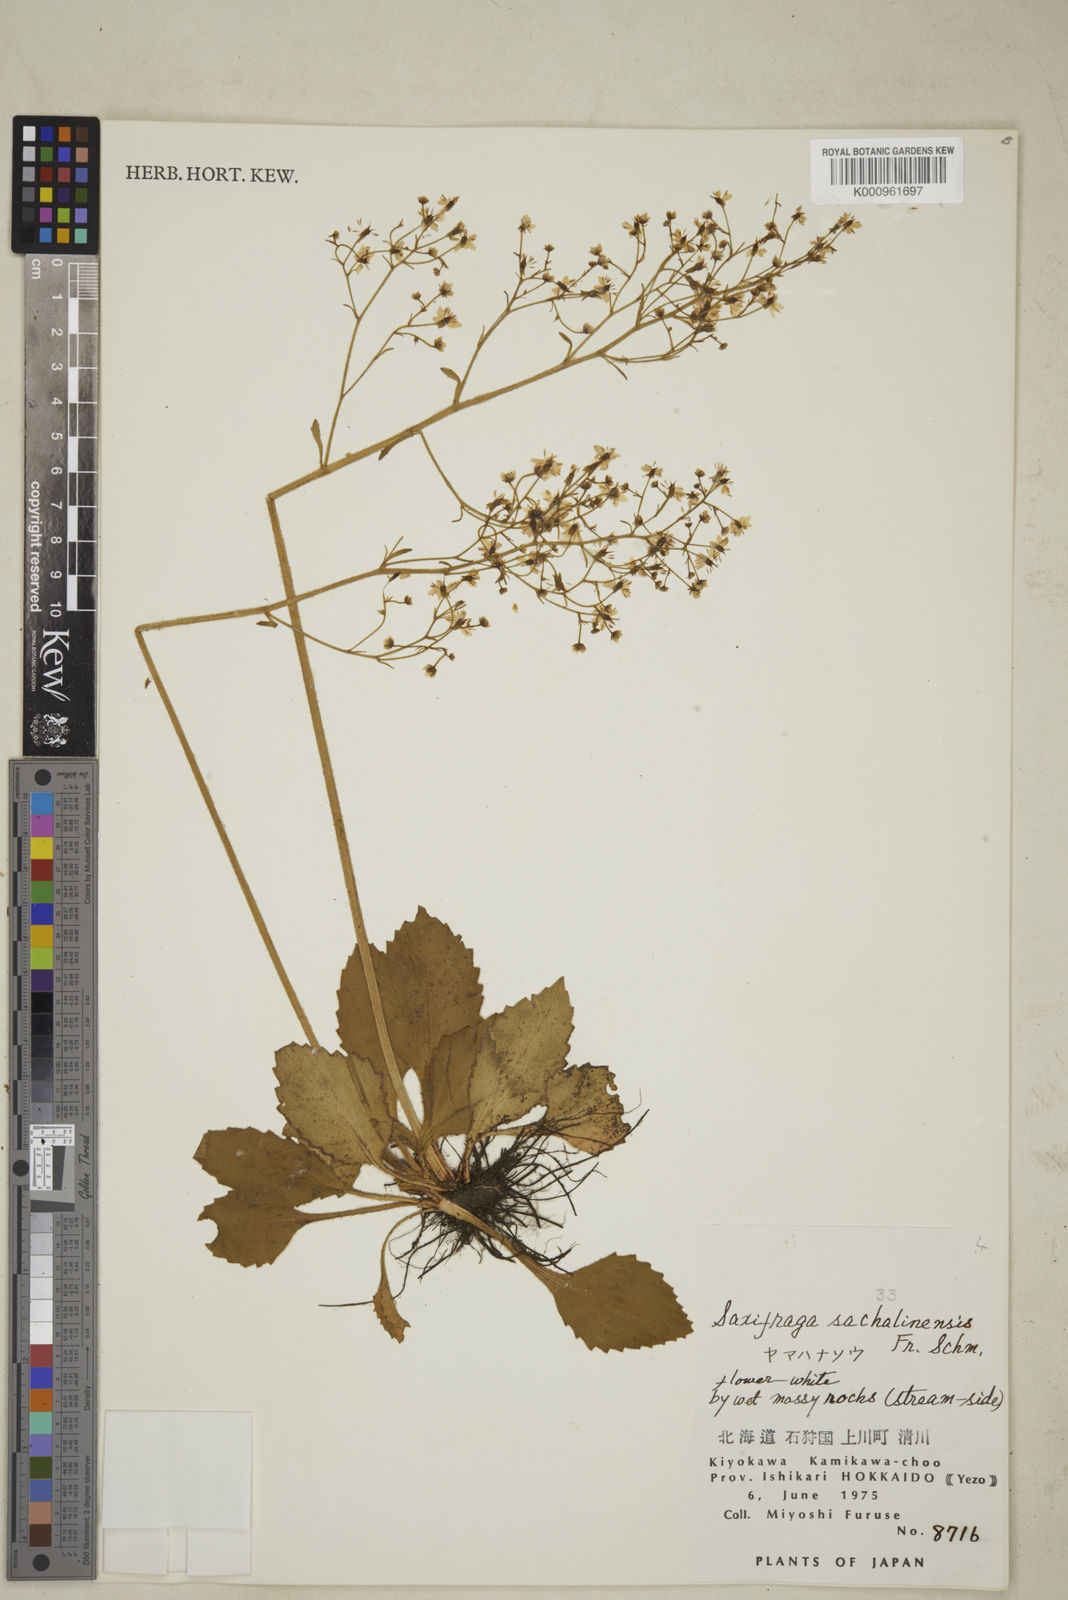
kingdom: Plantae
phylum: Tracheophyta
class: Magnoliopsida
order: Saxifragales
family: Saxifragaceae
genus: Micranthes
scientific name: Micranthes sachalinensis
